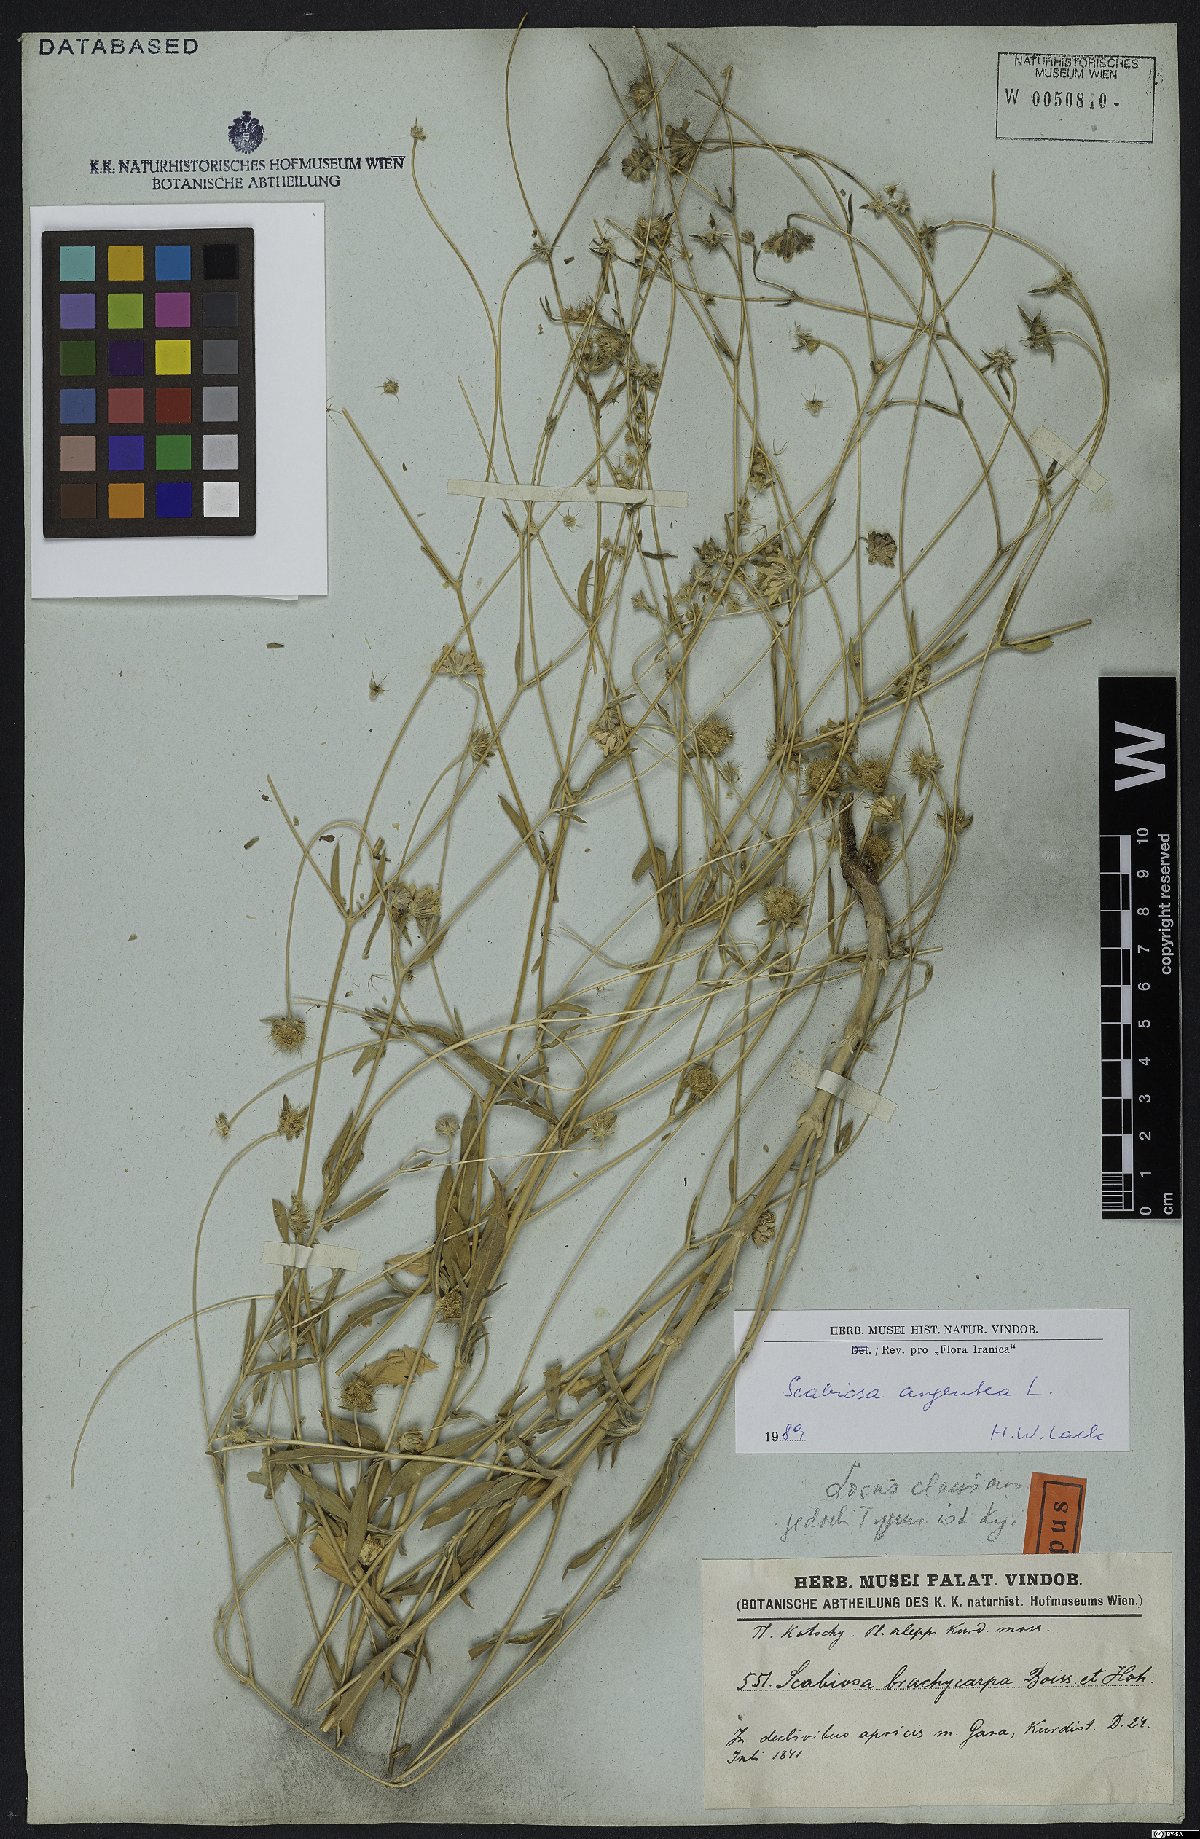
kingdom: Plantae
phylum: Tracheophyta
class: Magnoliopsida
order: Dipsacales
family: Caprifoliaceae
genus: Lomelosia
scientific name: Lomelosia argentea
